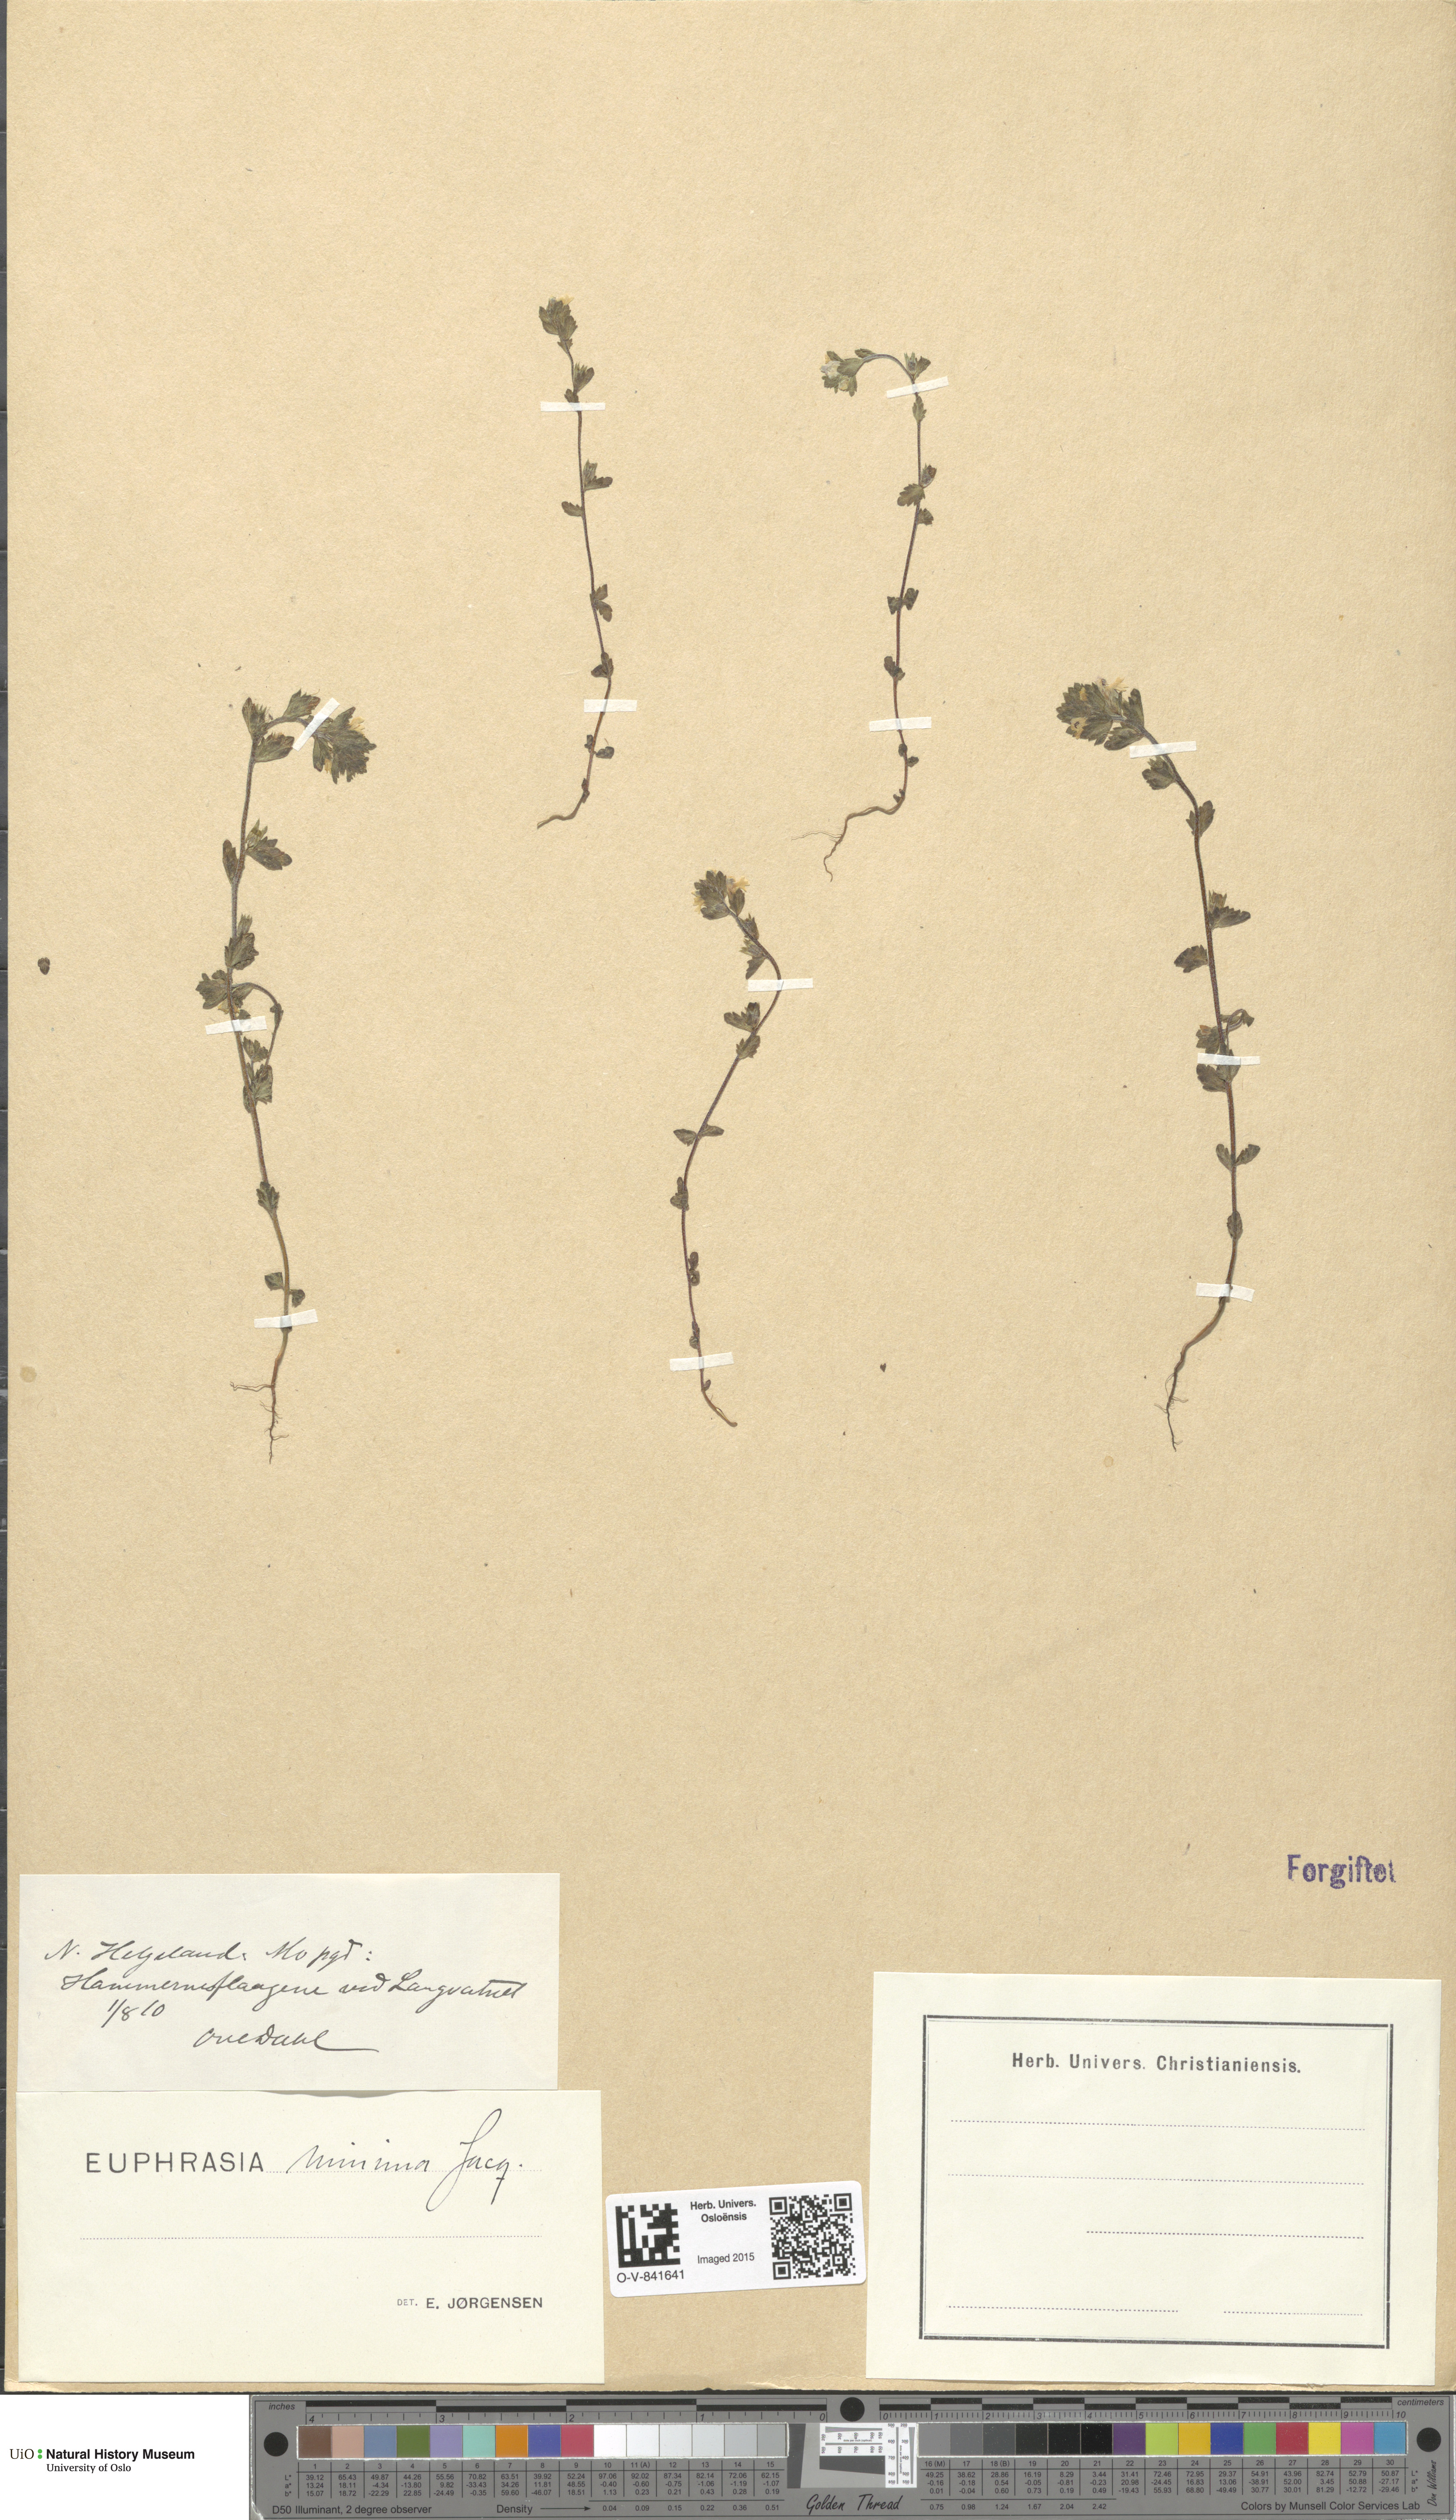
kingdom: Plantae
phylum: Tracheophyta
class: Magnoliopsida
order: Lamiales
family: Orobanchaceae
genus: Euphrasia
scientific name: Euphrasia wettsteinii
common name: Wettstein's eyebright
